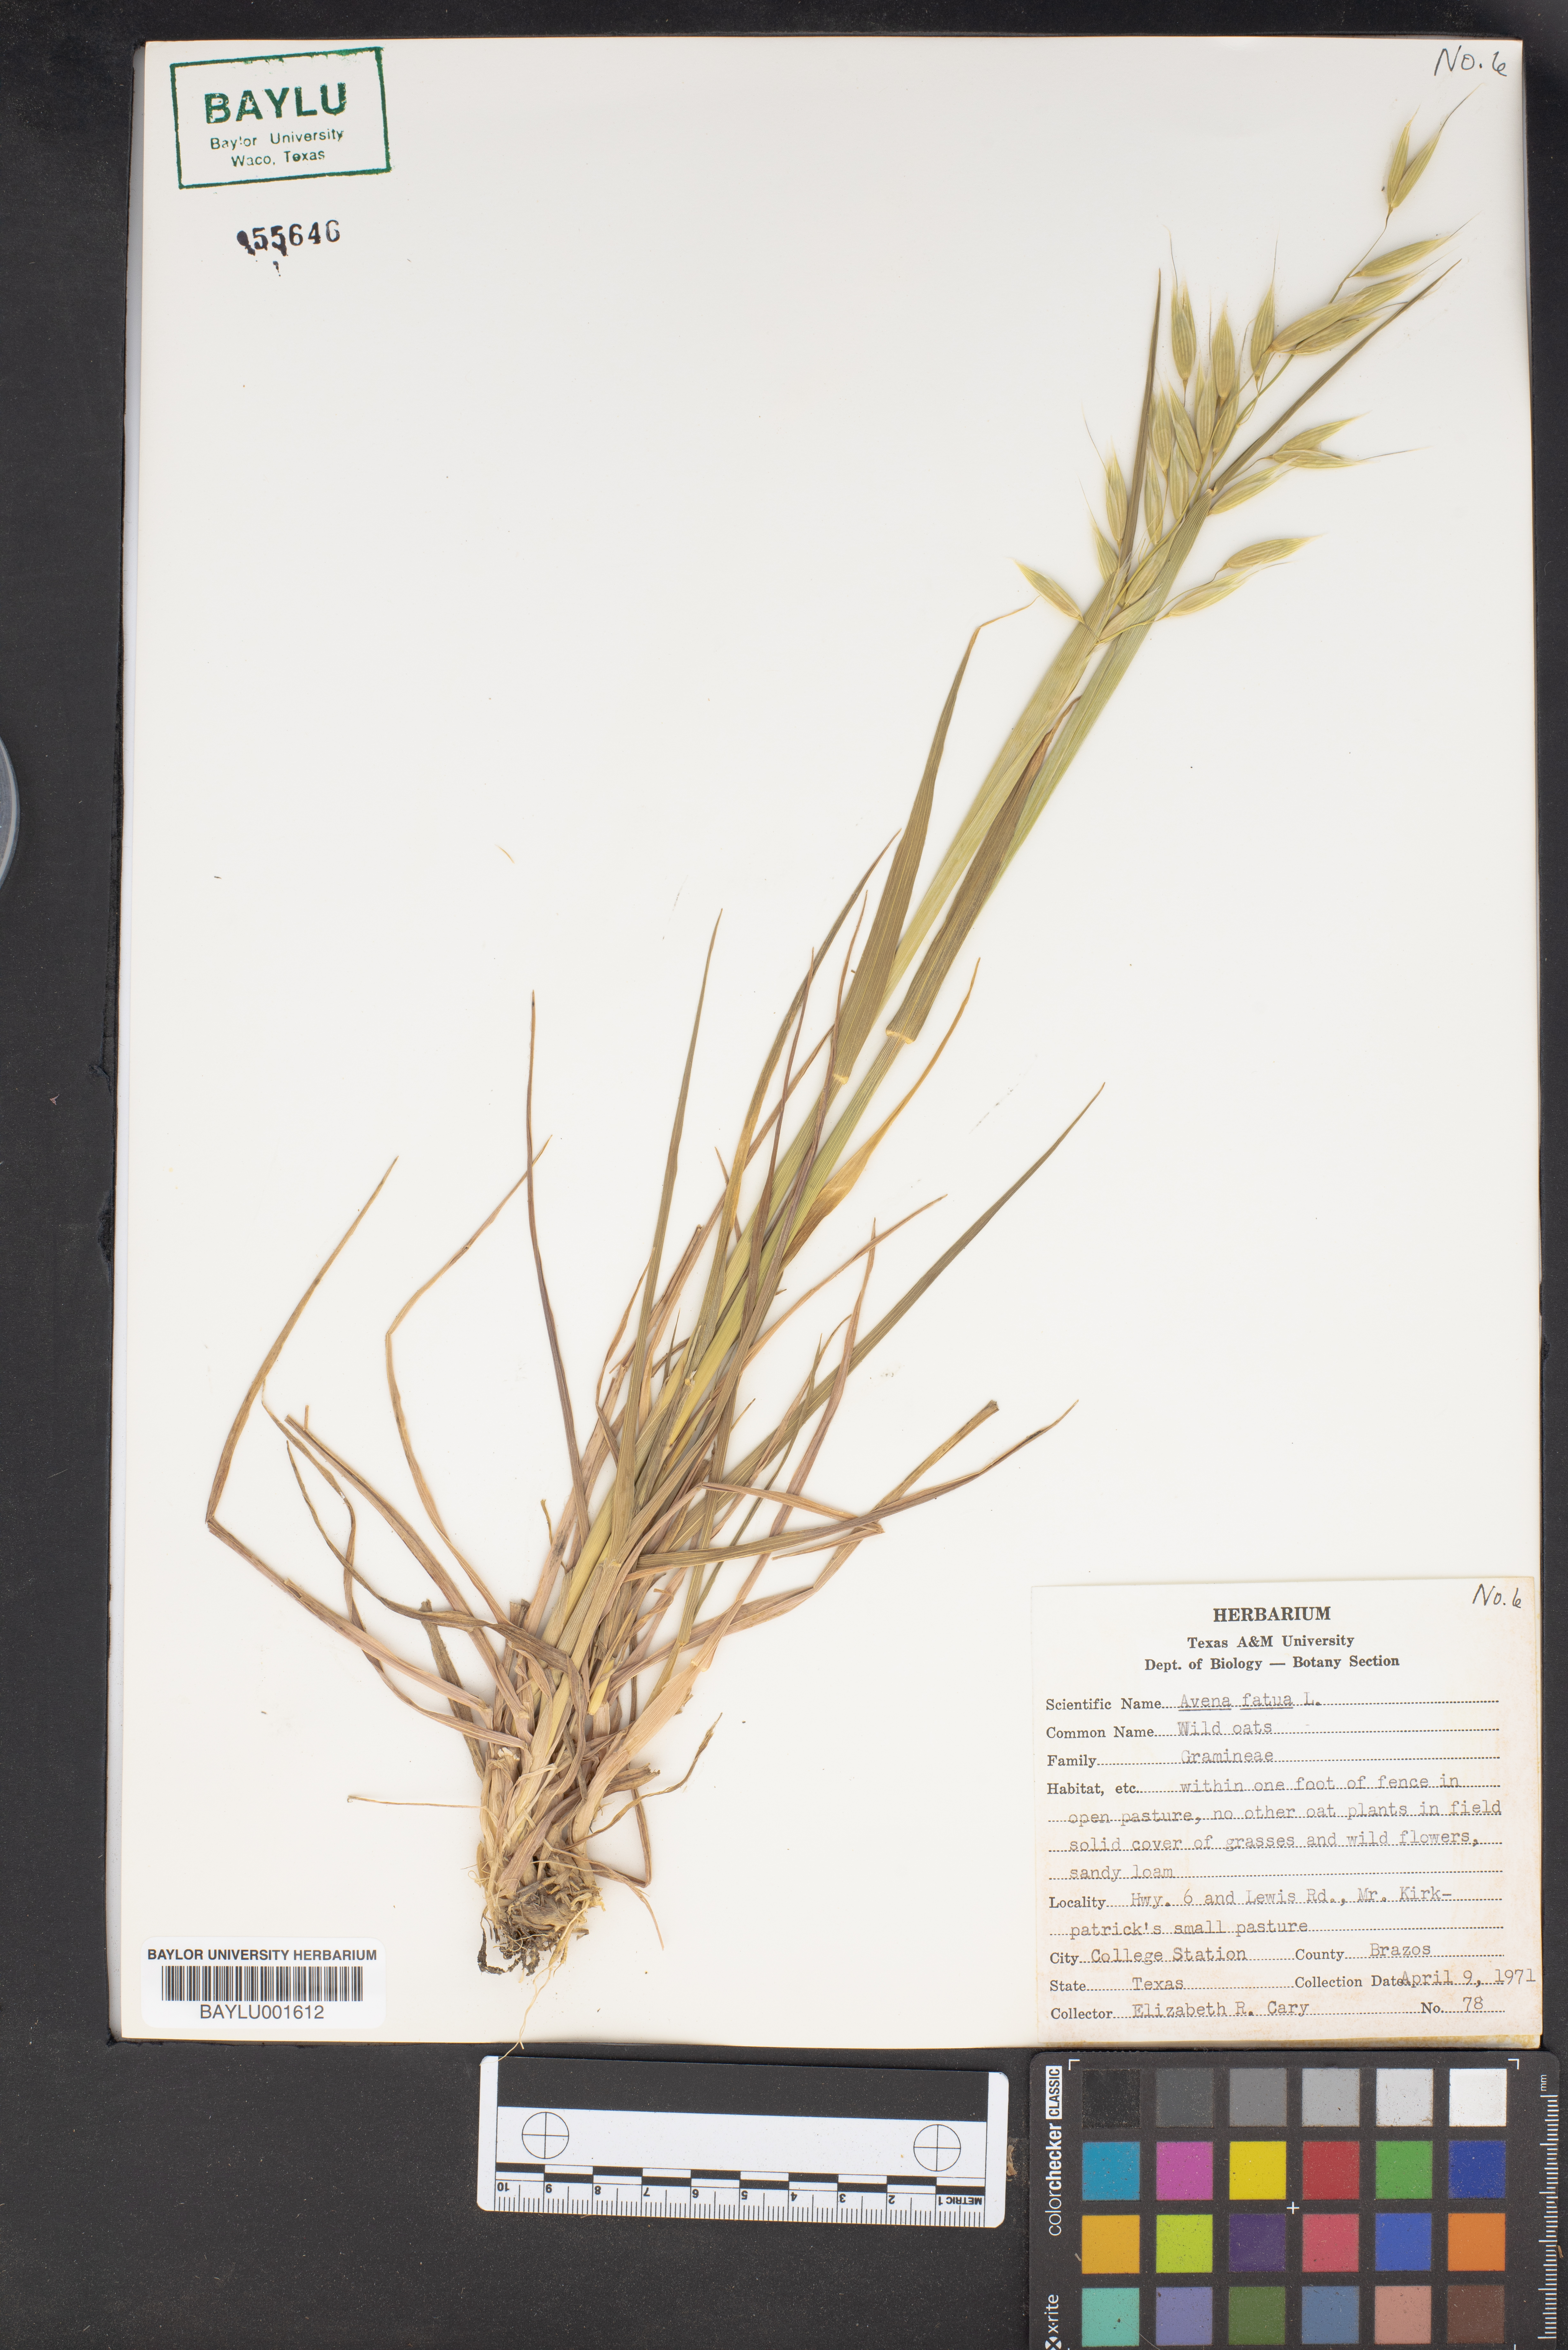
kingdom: Plantae
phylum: Tracheophyta
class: Liliopsida
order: Poales
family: Poaceae
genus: Avena
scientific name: Avena fatua
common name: Wild oat
